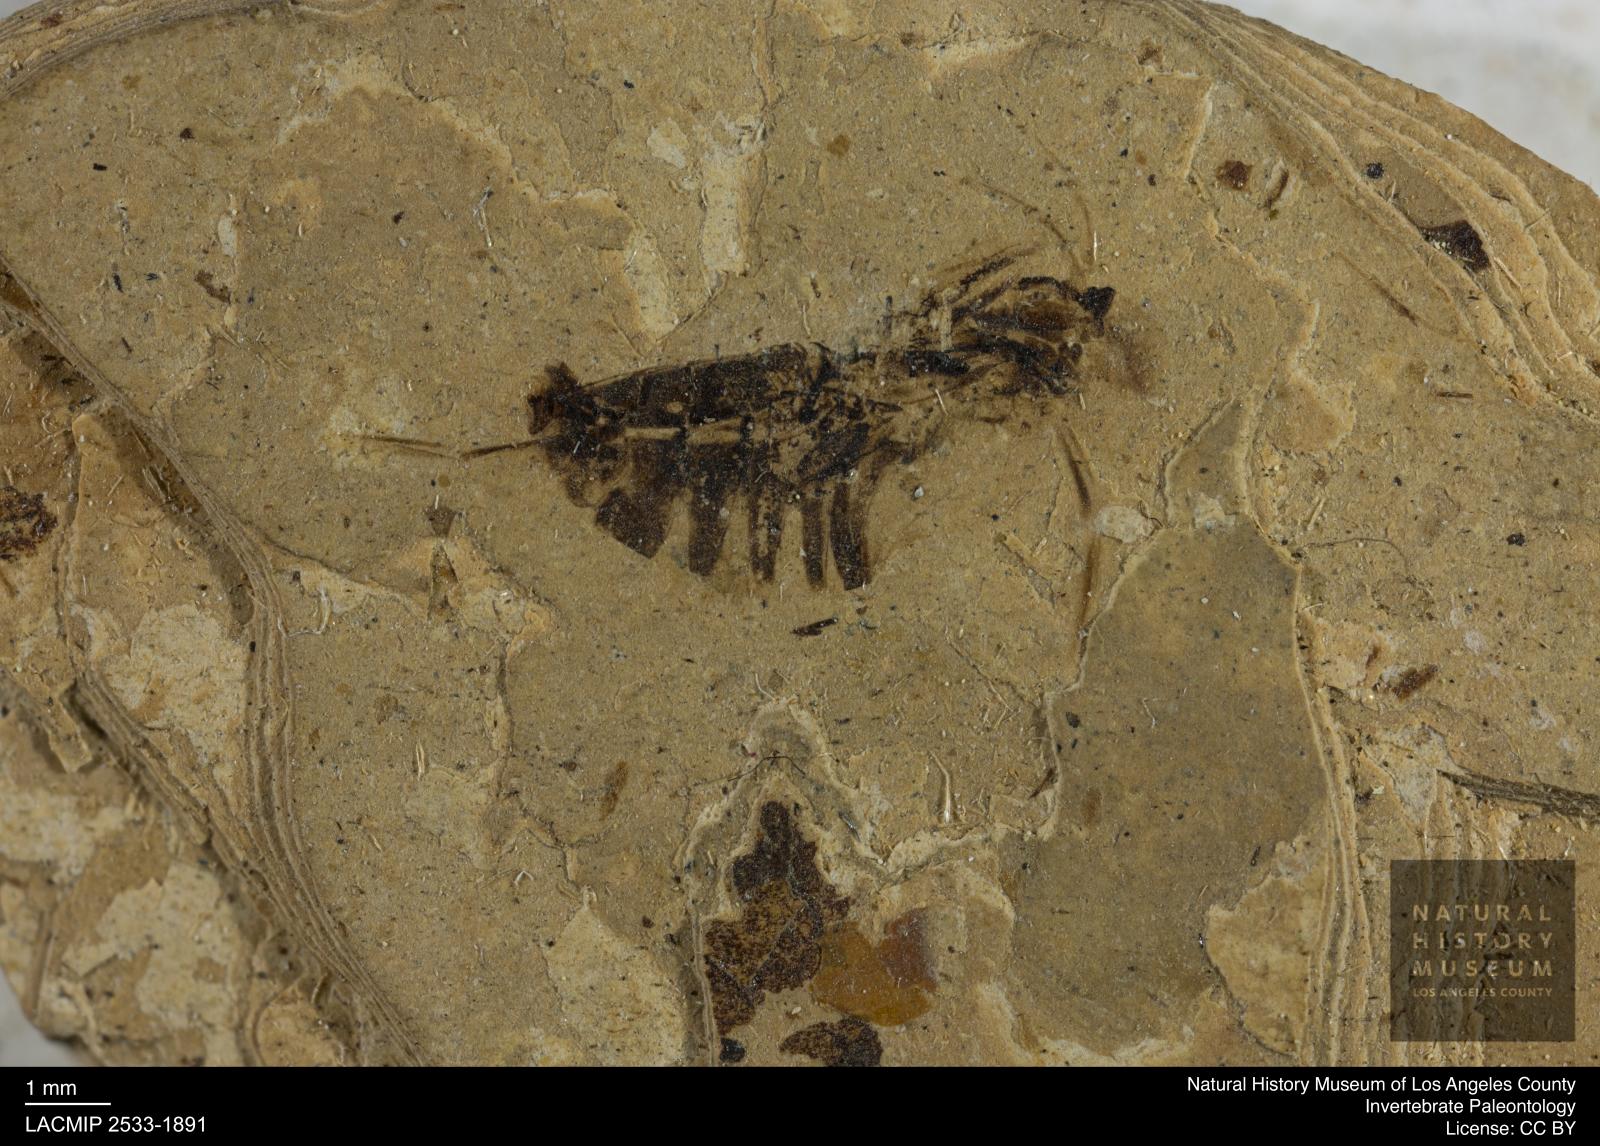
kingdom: Animalia
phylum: Arthropoda
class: Insecta
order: Hemiptera
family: Notonectidae
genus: Anisops
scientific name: Anisops Notonecta deichmuelleri
